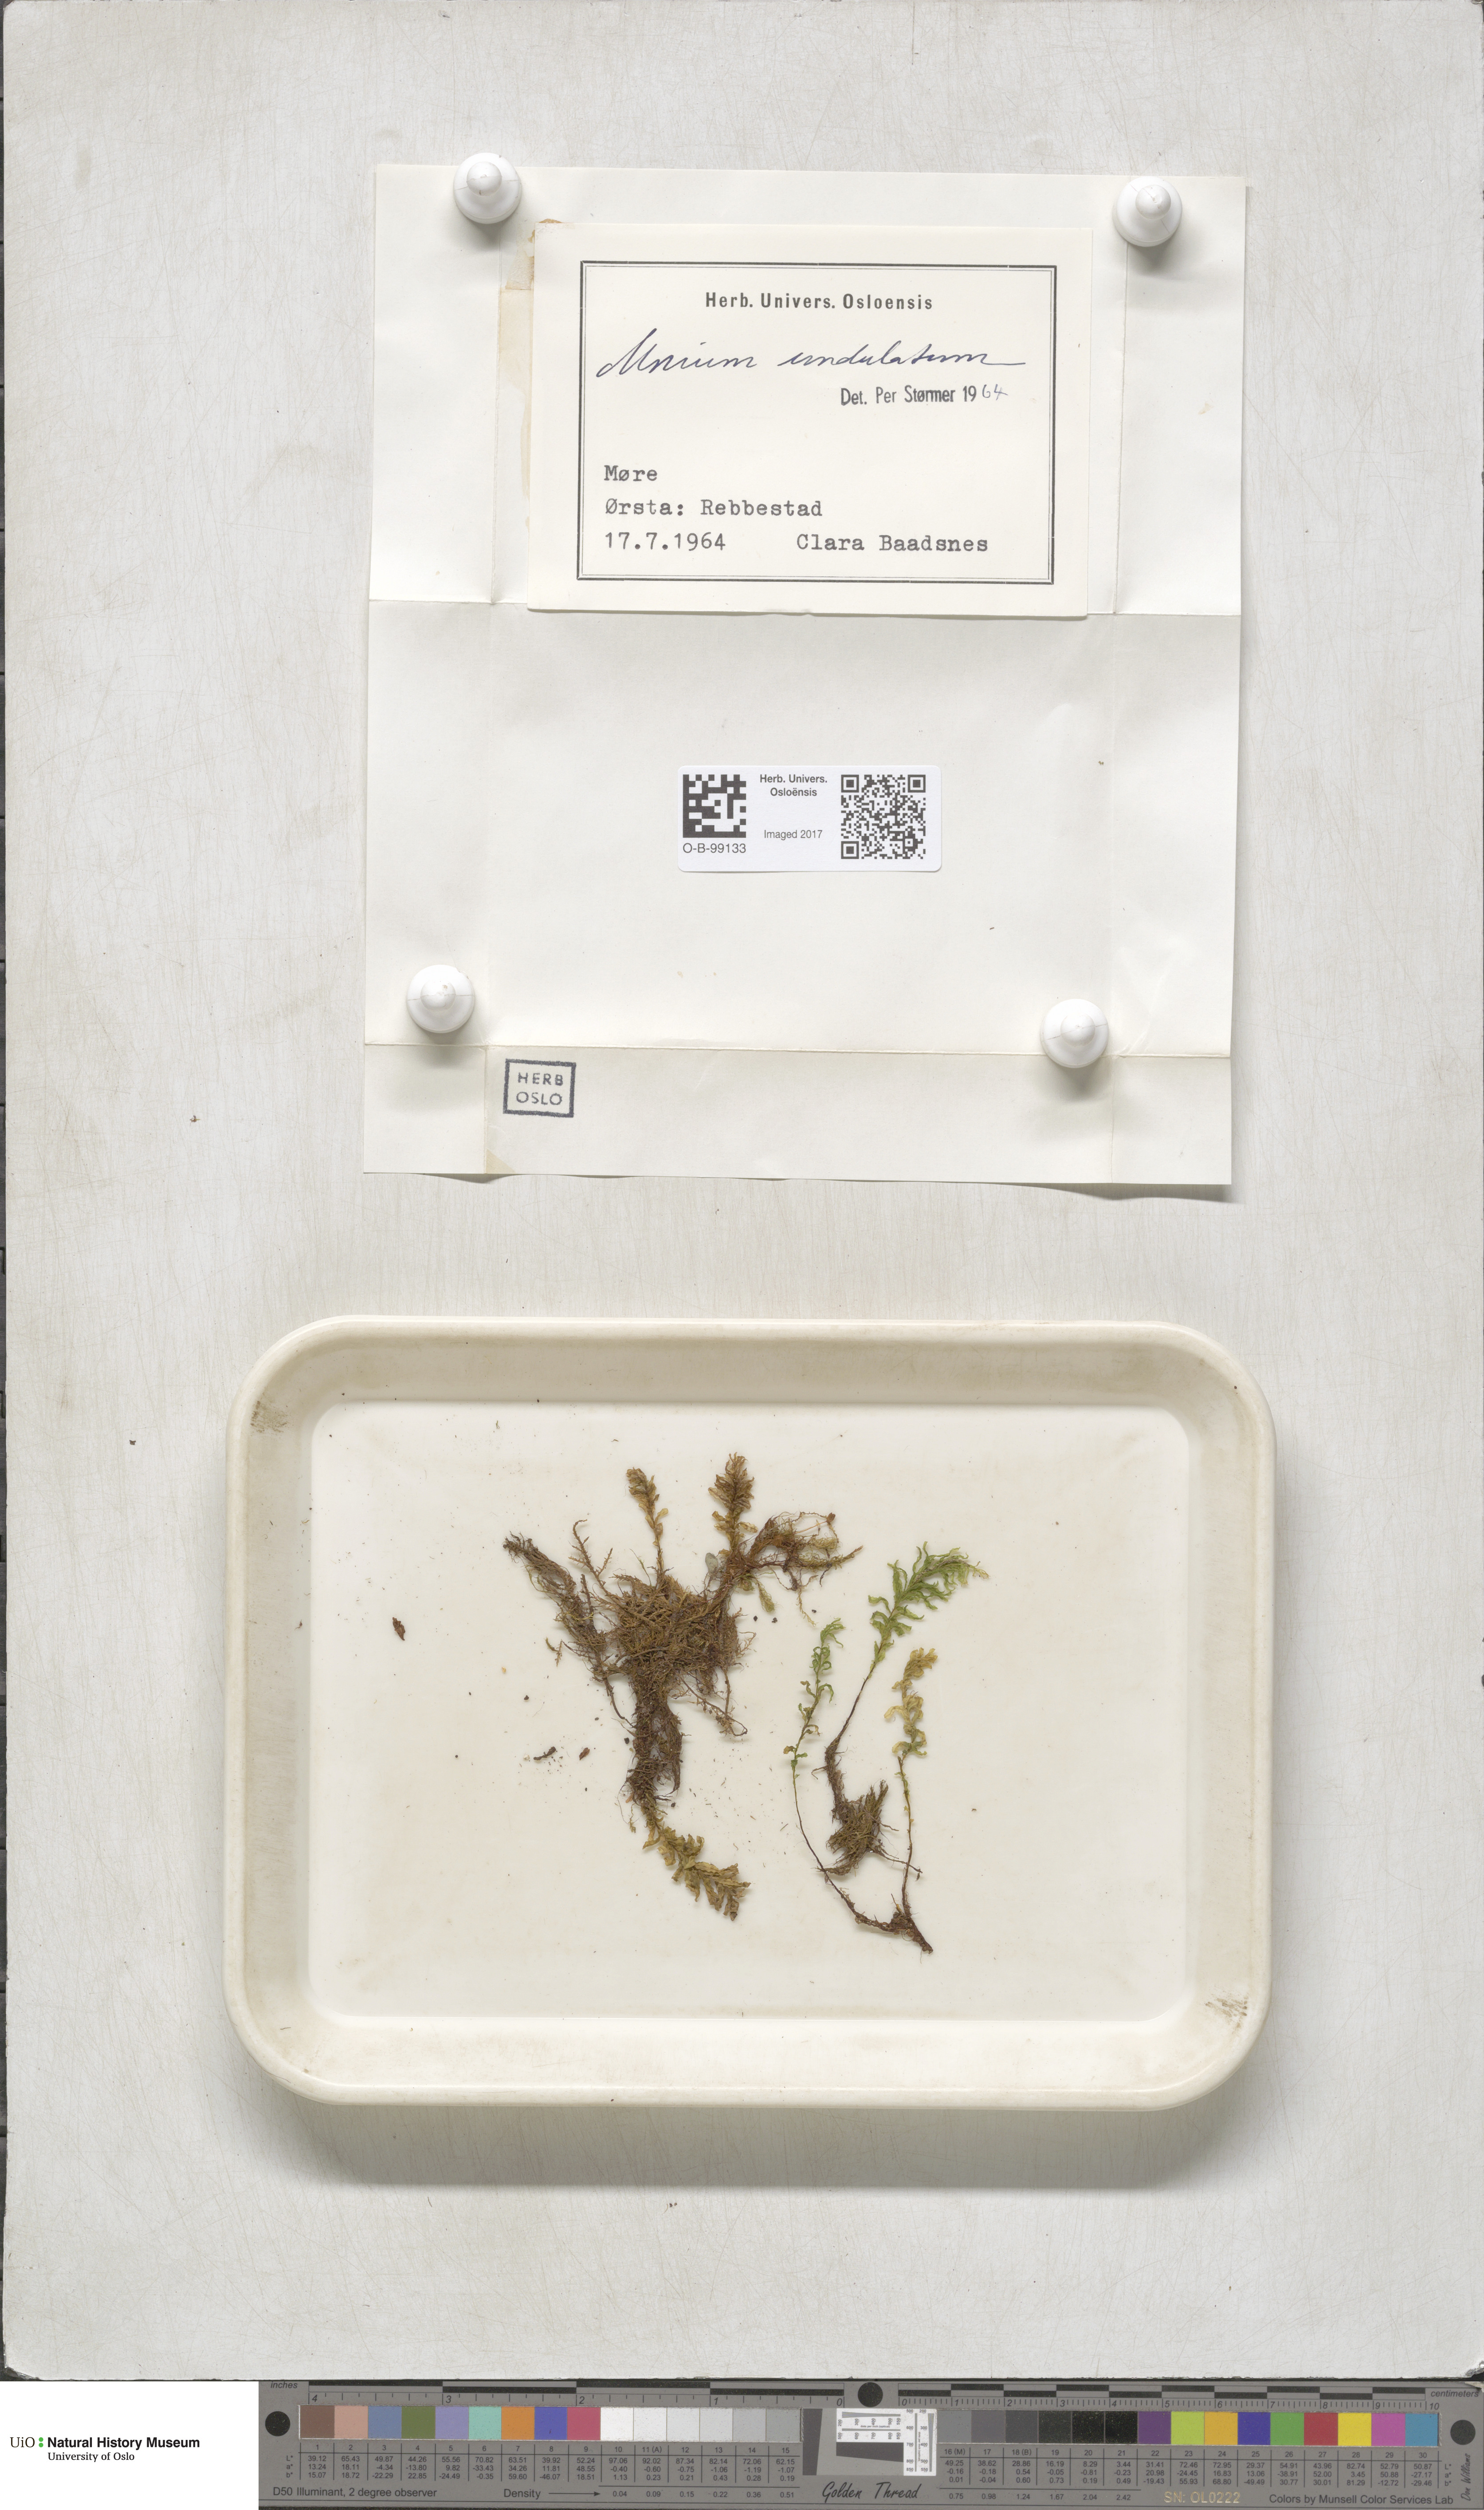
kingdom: Plantae
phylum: Bryophyta
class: Bryopsida
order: Bryales
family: Mniaceae
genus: Plagiomnium
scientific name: Plagiomnium undulatum
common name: Hart's-tongue thyme-moss
